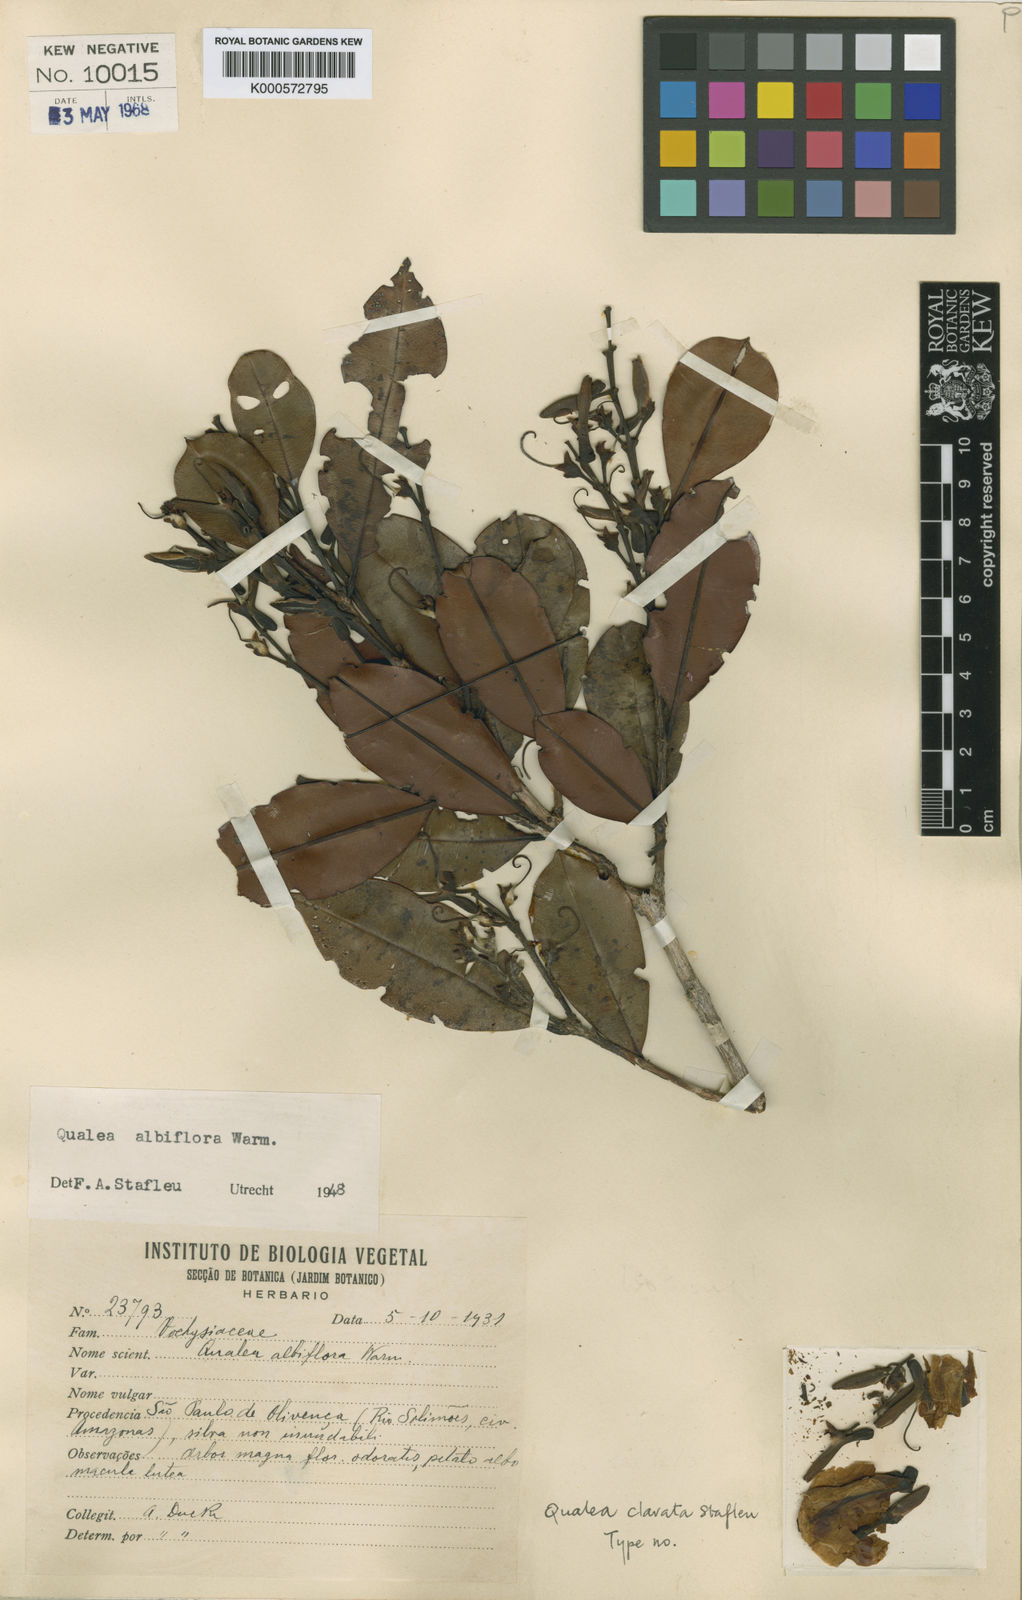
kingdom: Plantae
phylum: Tracheophyta
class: Magnoliopsida
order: Myrtales
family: Vochysiaceae
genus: Qualea
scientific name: Qualea clavata
